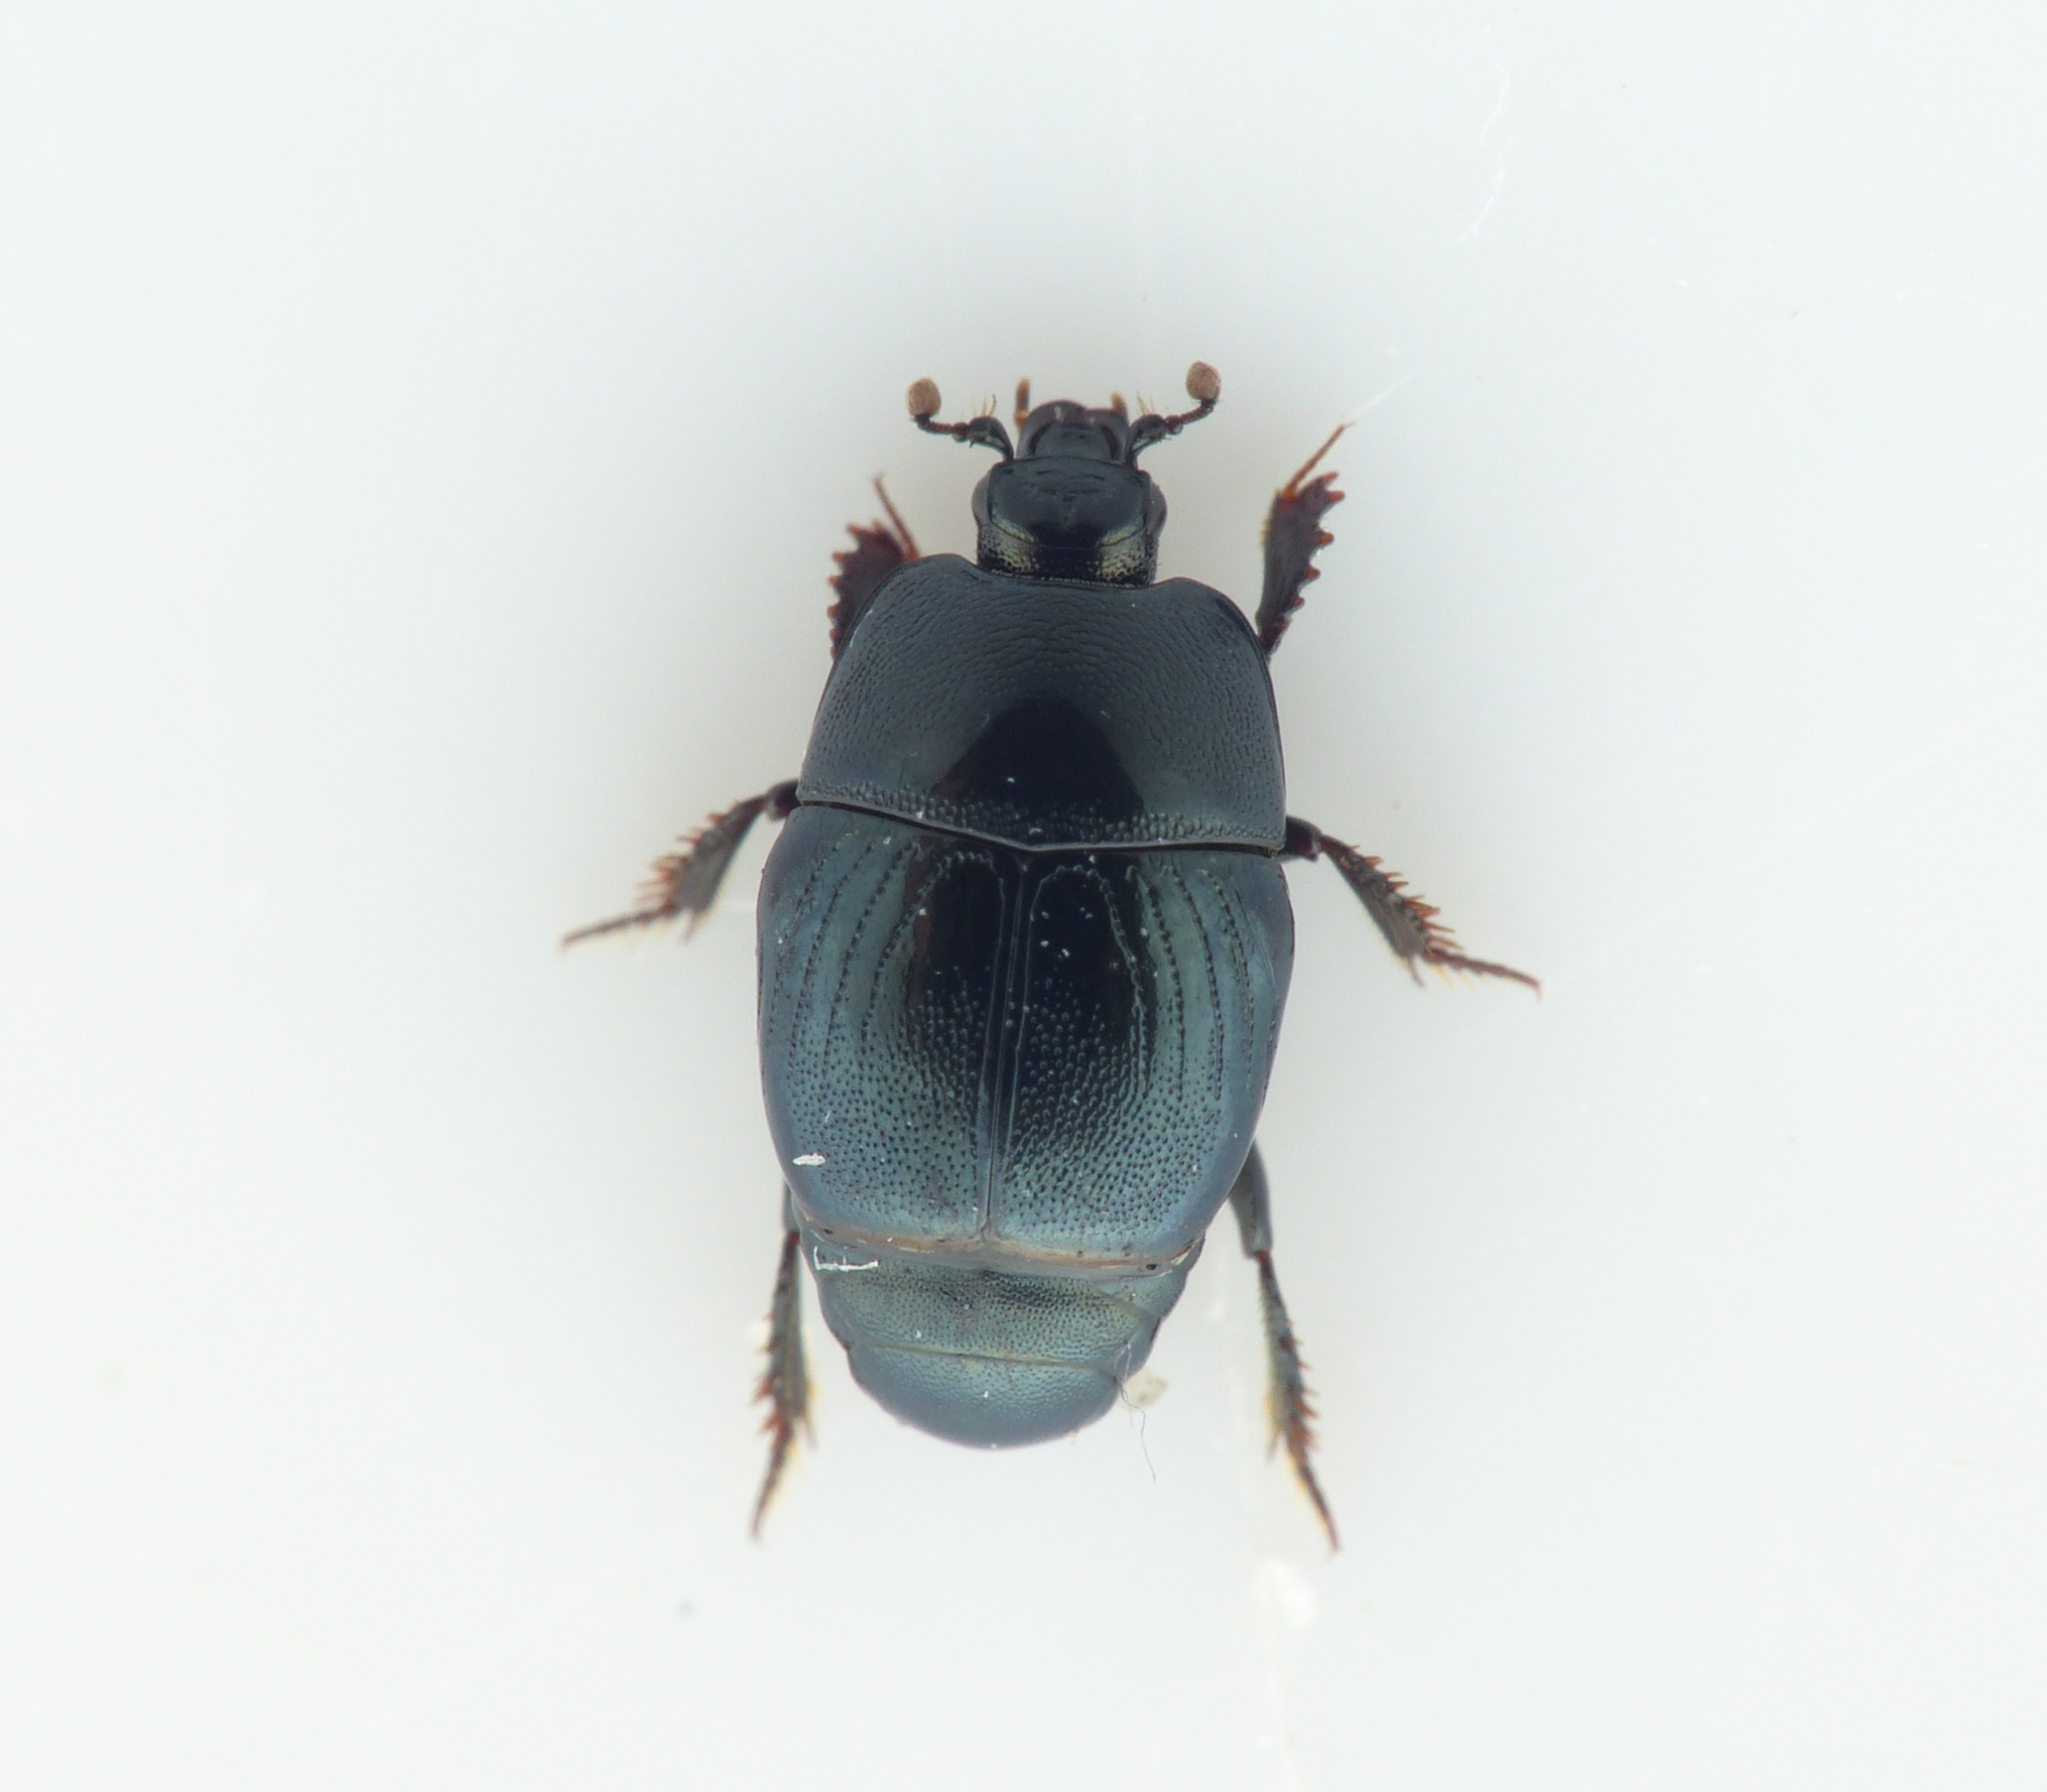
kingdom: Animalia
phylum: Arthropoda
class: Insecta
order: Coleoptera
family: Histeridae
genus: Hypocaccus
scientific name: Hypocaccus rugifrons
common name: Lille klitstumpbille
